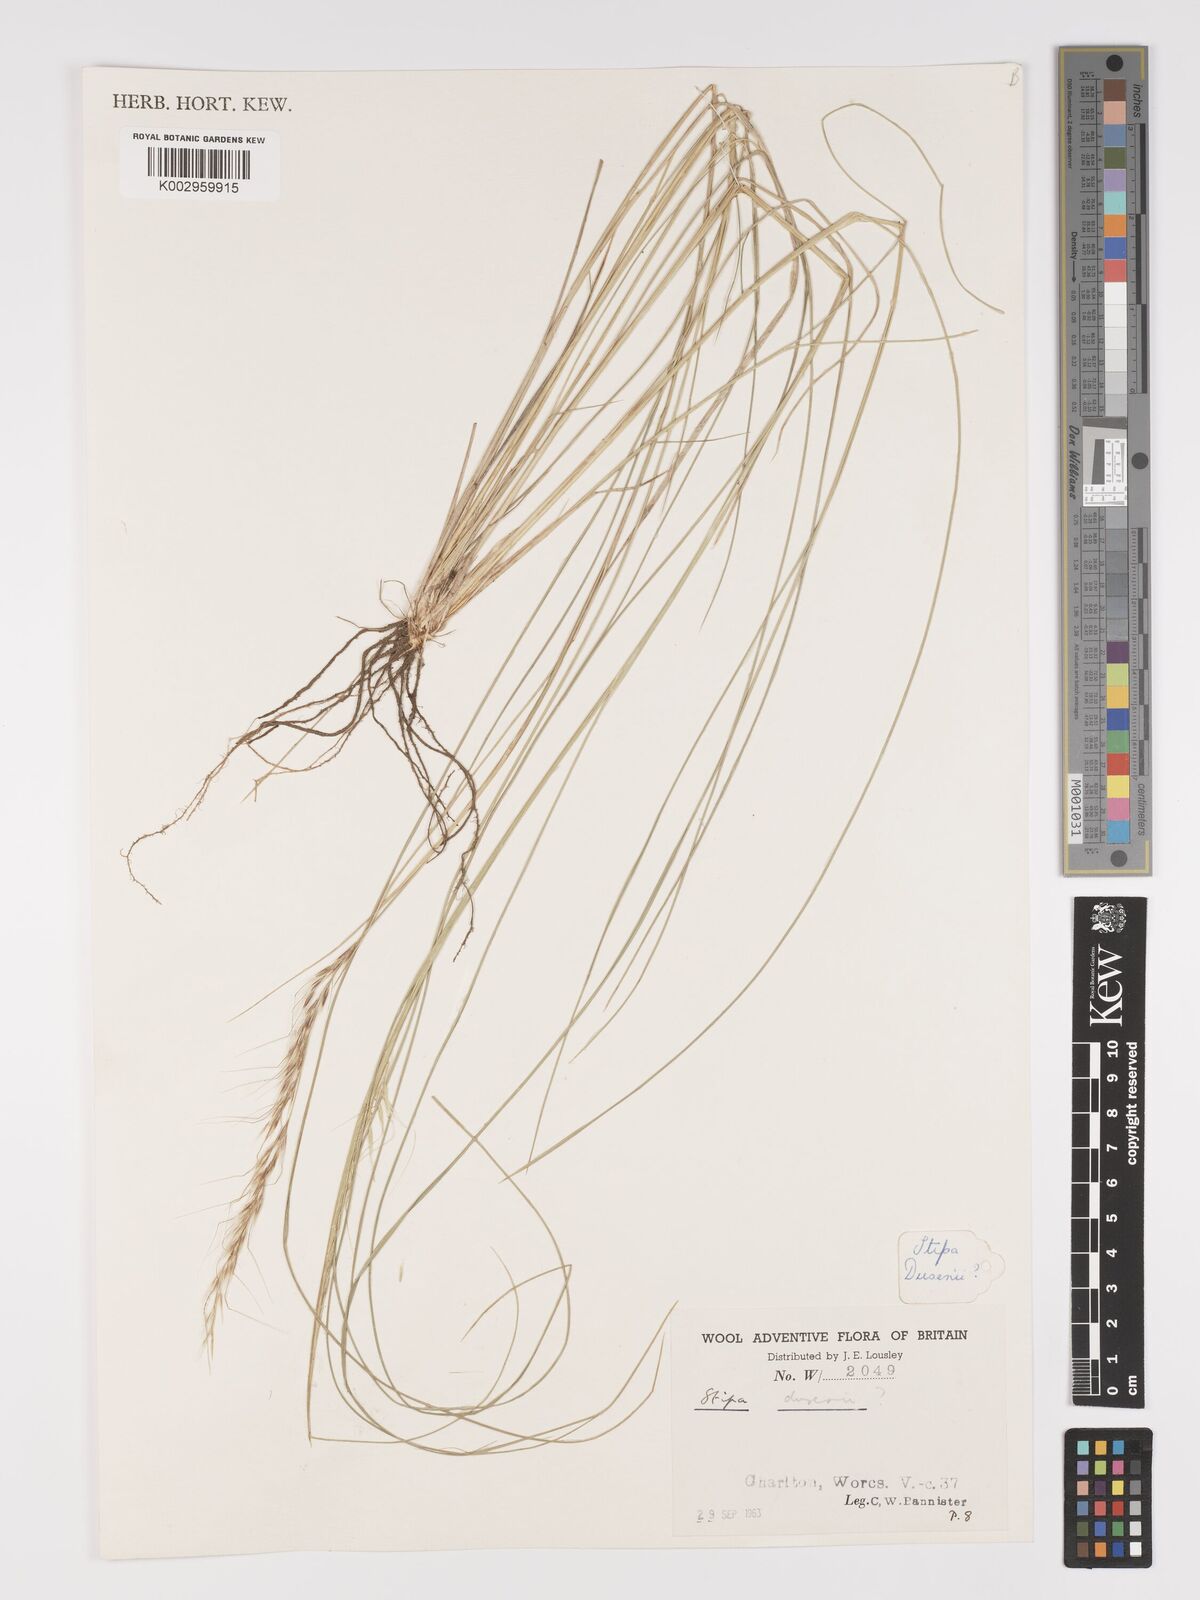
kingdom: Plantae
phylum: Tracheophyta
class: Liliopsida
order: Poales
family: Poaceae
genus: Stipa
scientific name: Stipa
